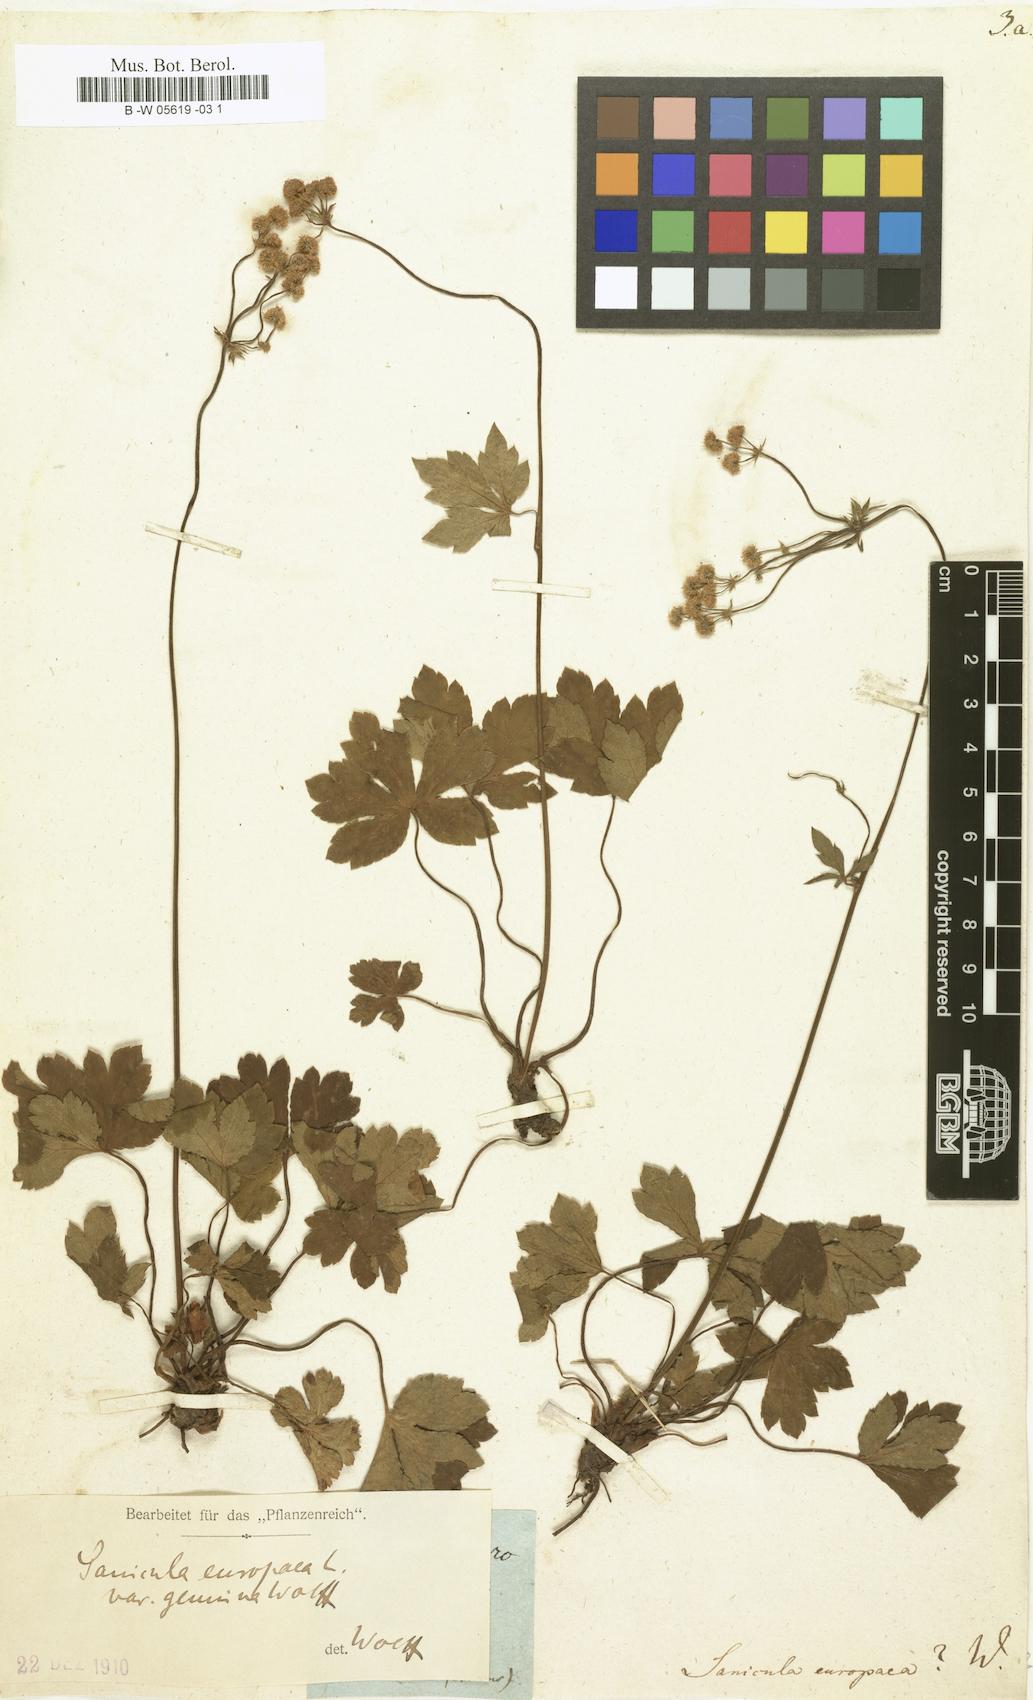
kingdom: Plantae
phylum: Tracheophyta
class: Magnoliopsida
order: Apiales
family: Apiaceae
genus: Sanicula
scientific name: Sanicula europaea
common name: Sanicle
